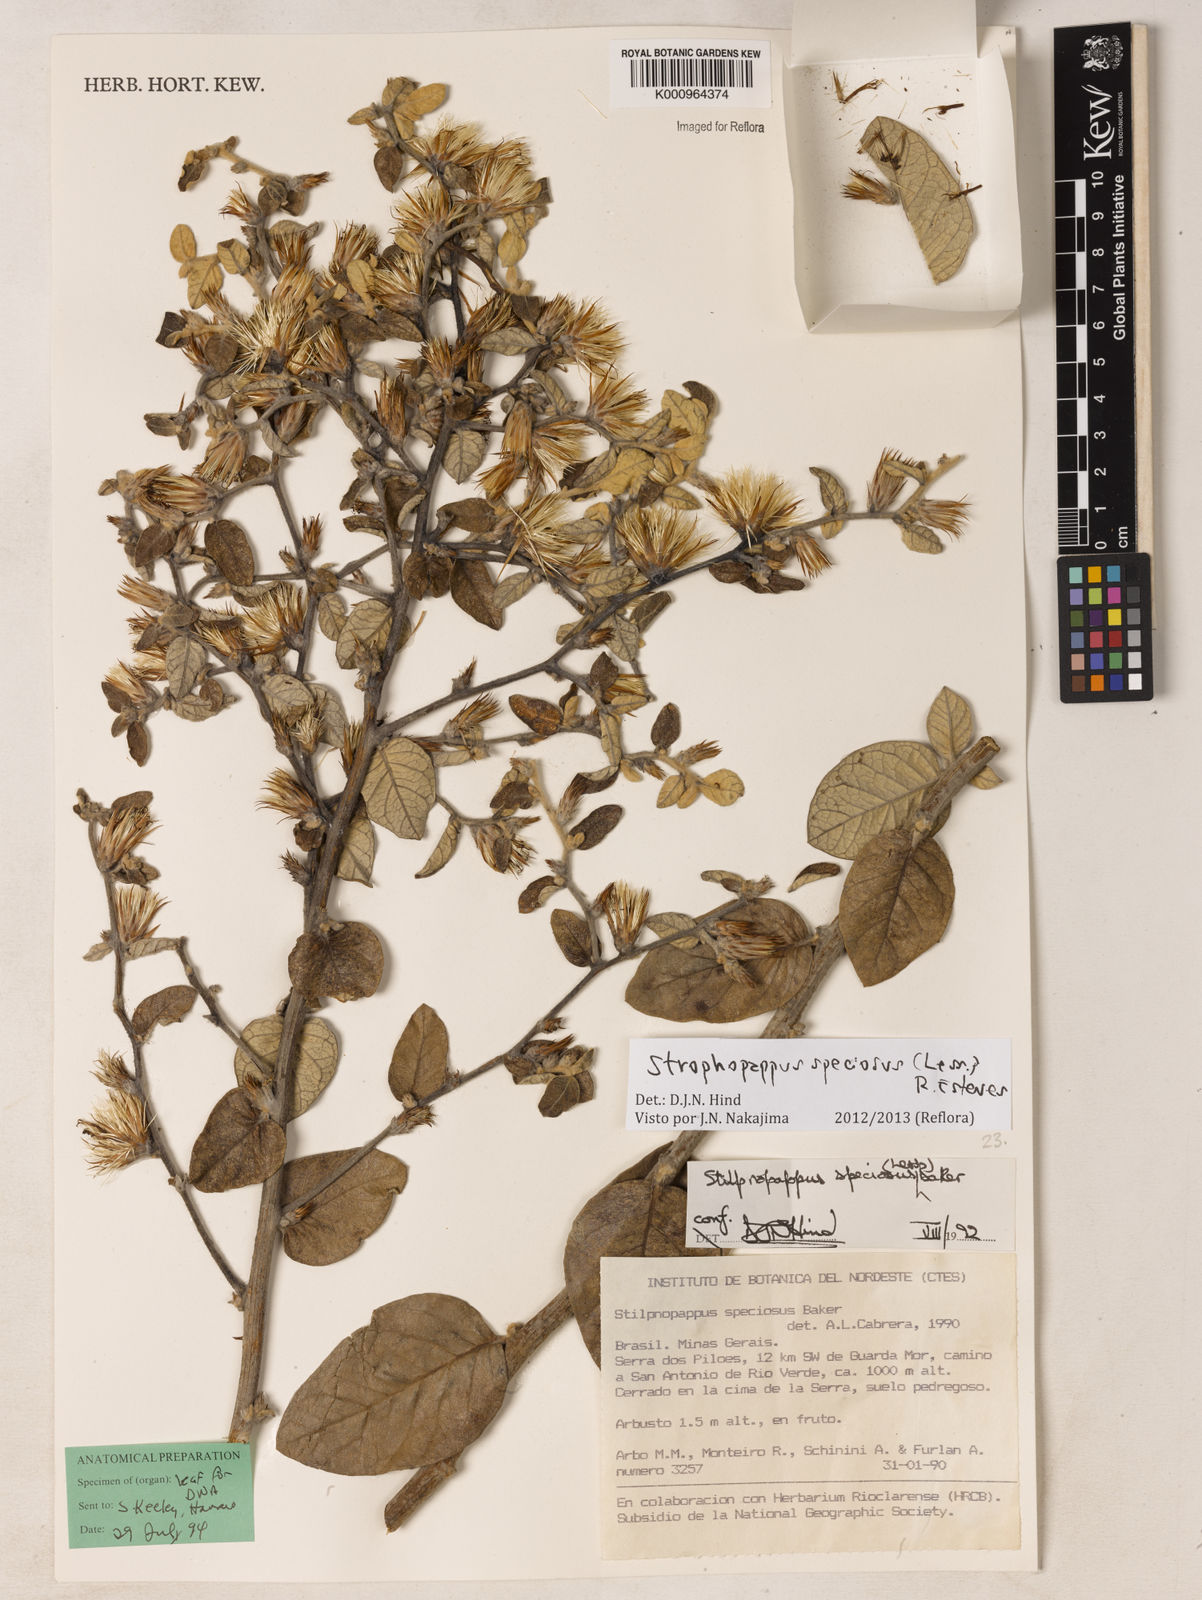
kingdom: Plantae
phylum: Tracheophyta
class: Magnoliopsida
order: Asterales
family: Asteraceae
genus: Stilpnopappus
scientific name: Stilpnopappus speciosus
